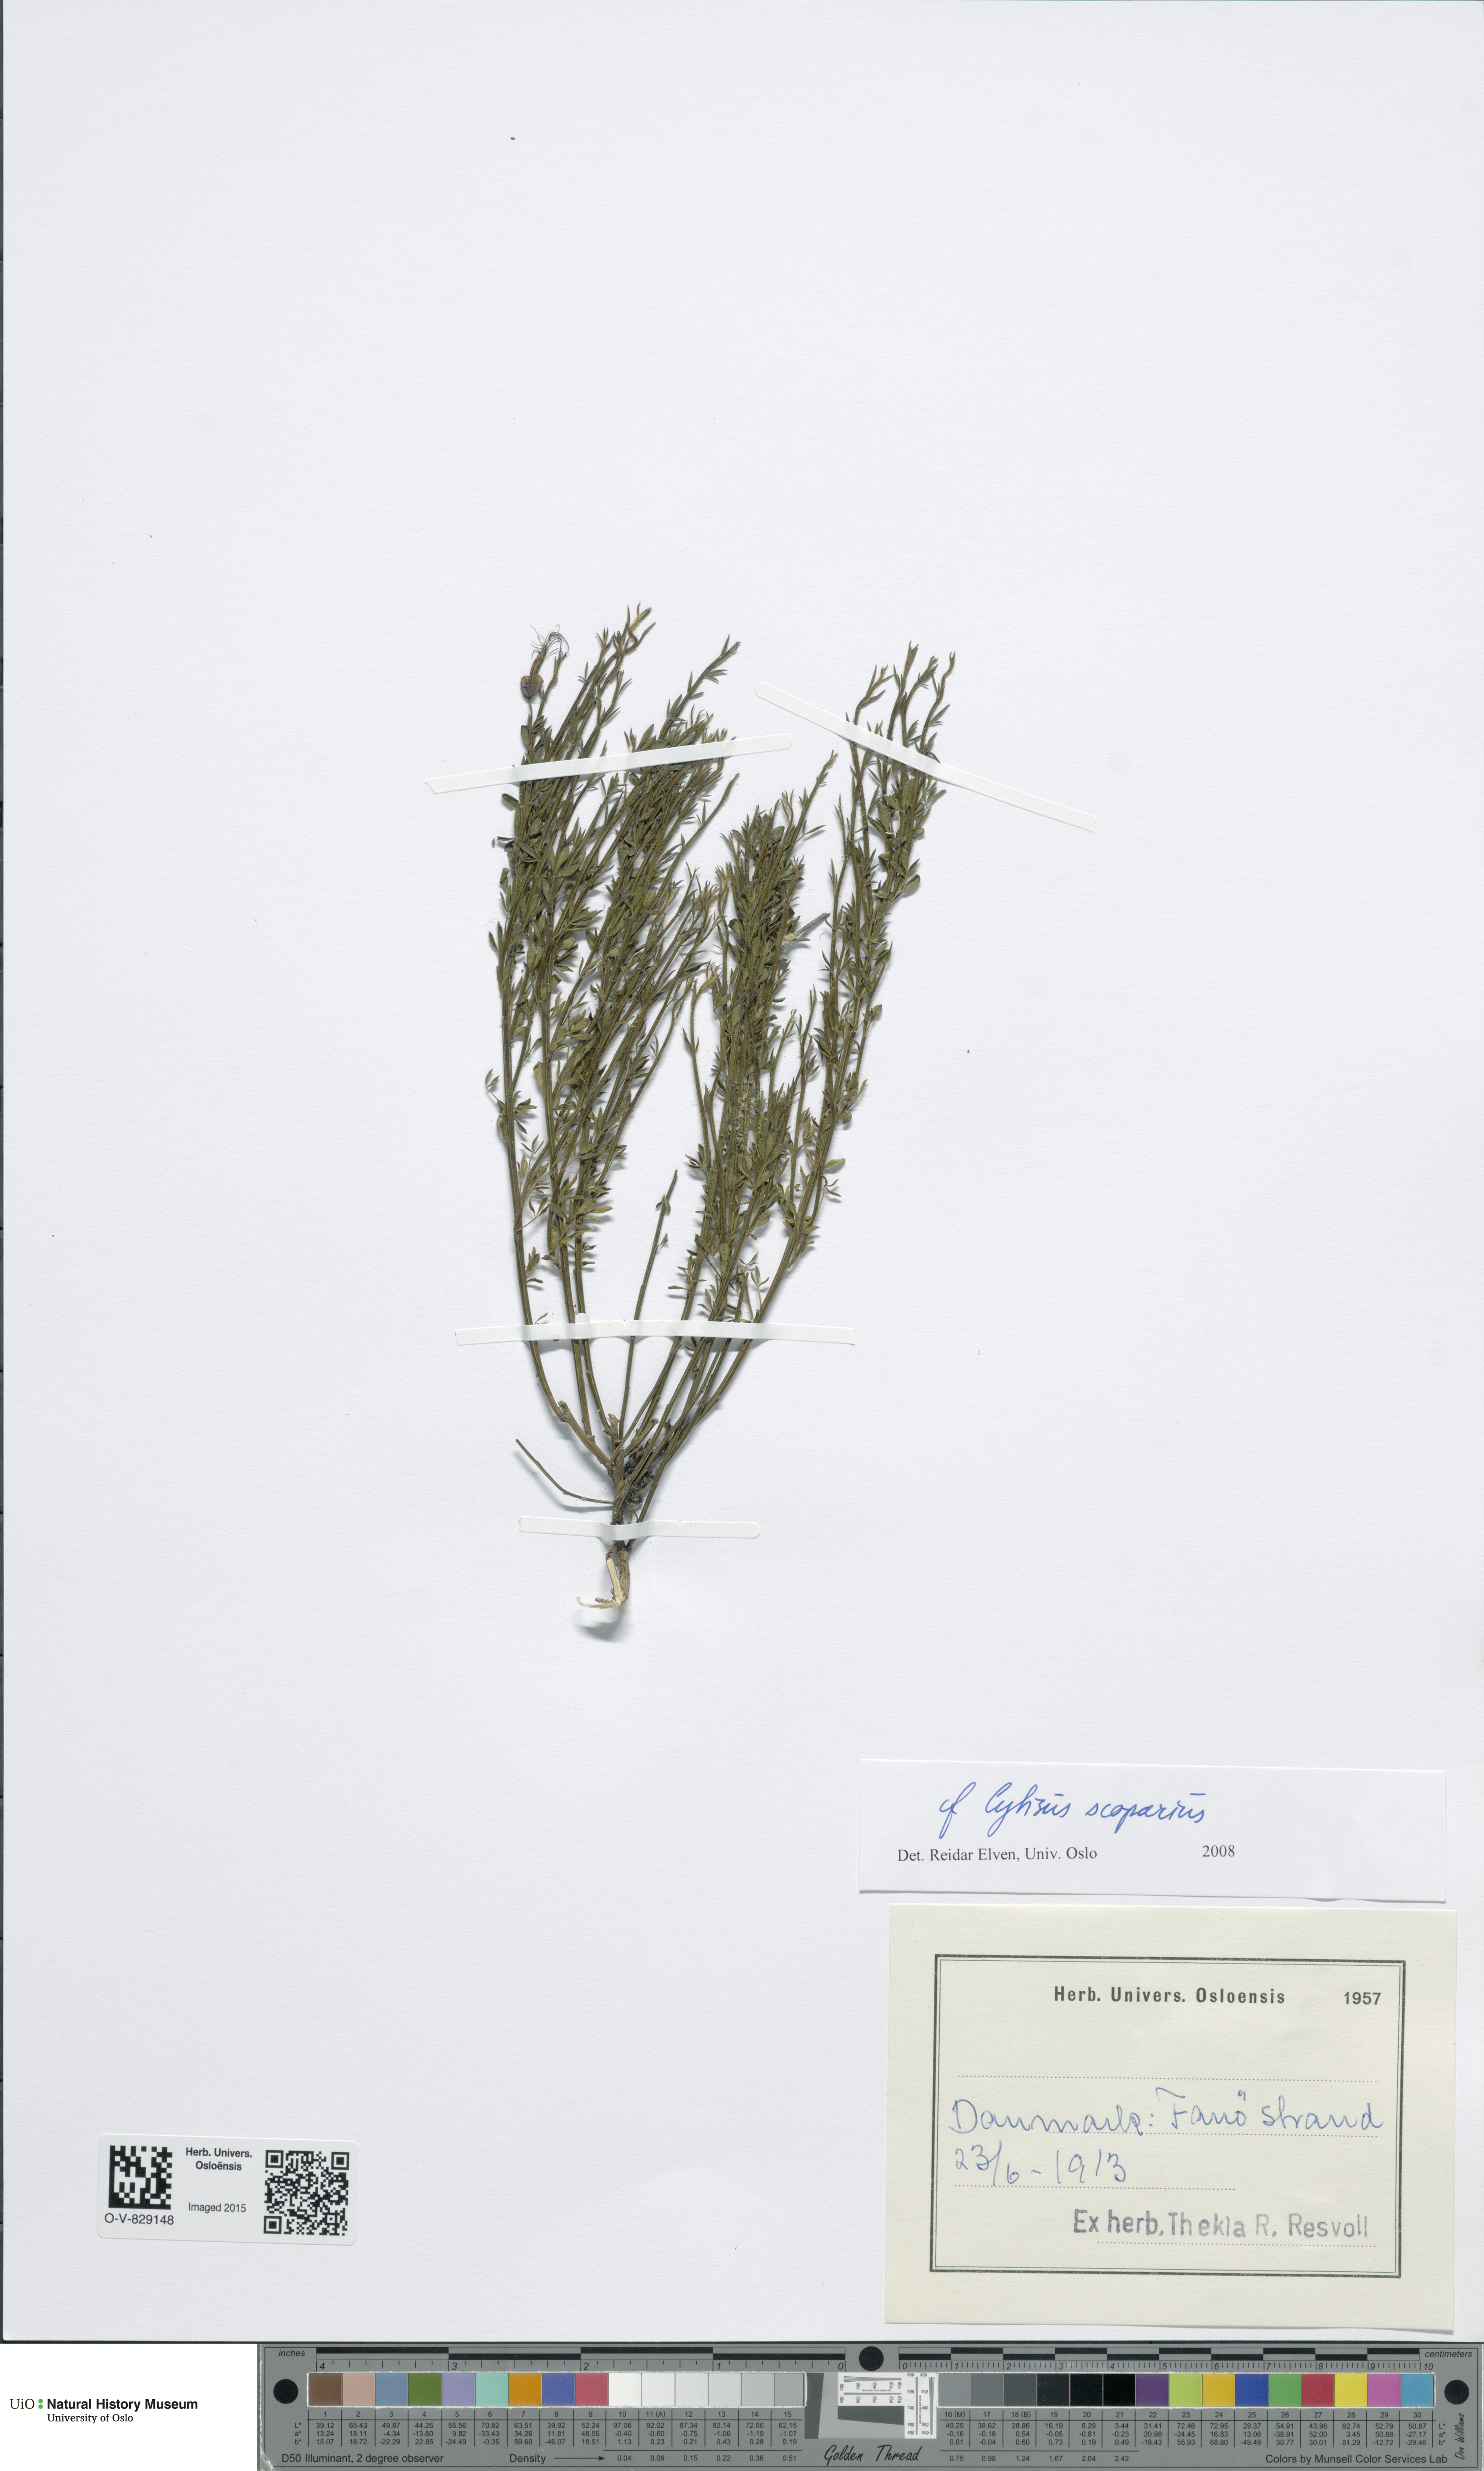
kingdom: Plantae
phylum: Tracheophyta
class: Magnoliopsida
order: Fabales
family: Fabaceae
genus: Cytisus
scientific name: Cytisus scoparius
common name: Scotch broom
